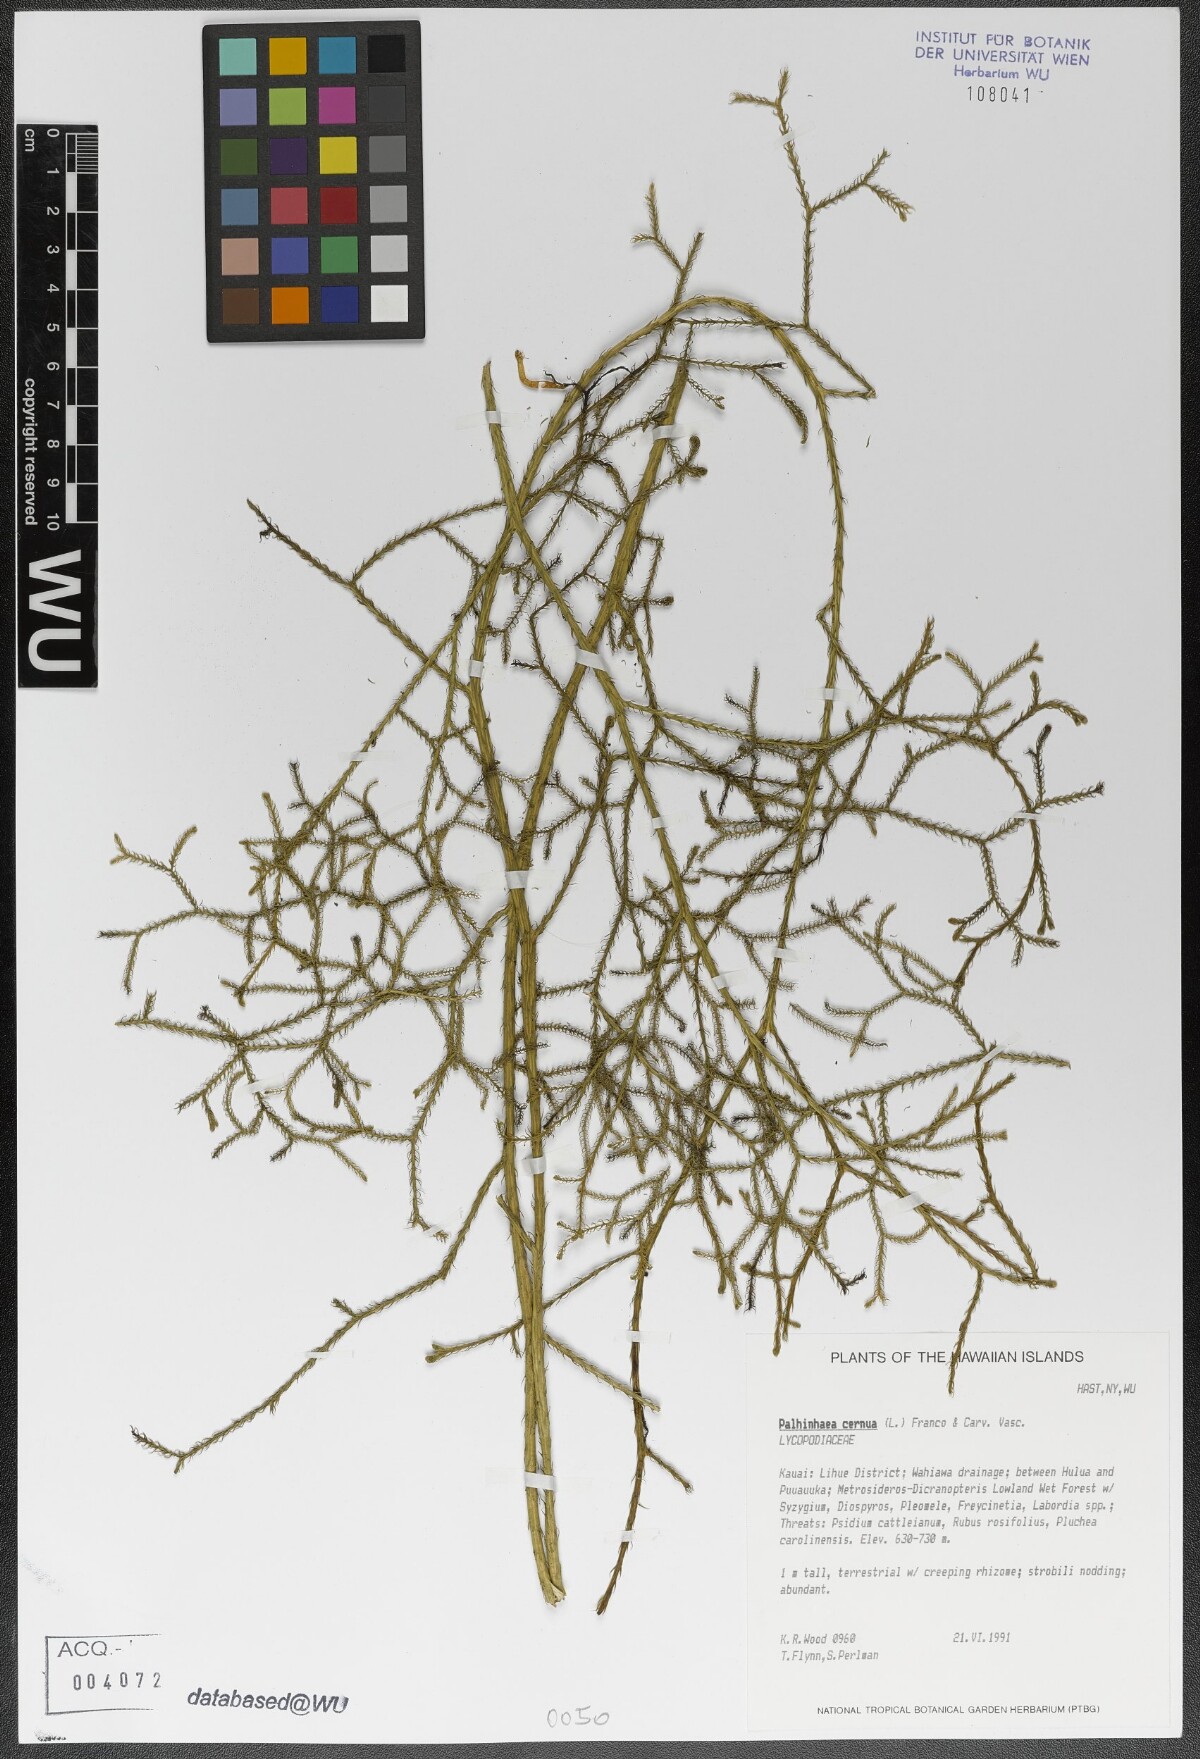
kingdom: Plantae
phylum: Tracheophyta
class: Lycopodiopsida
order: Lycopodiales
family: Lycopodiaceae
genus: Palhinhaea
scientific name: Palhinhaea cernua
